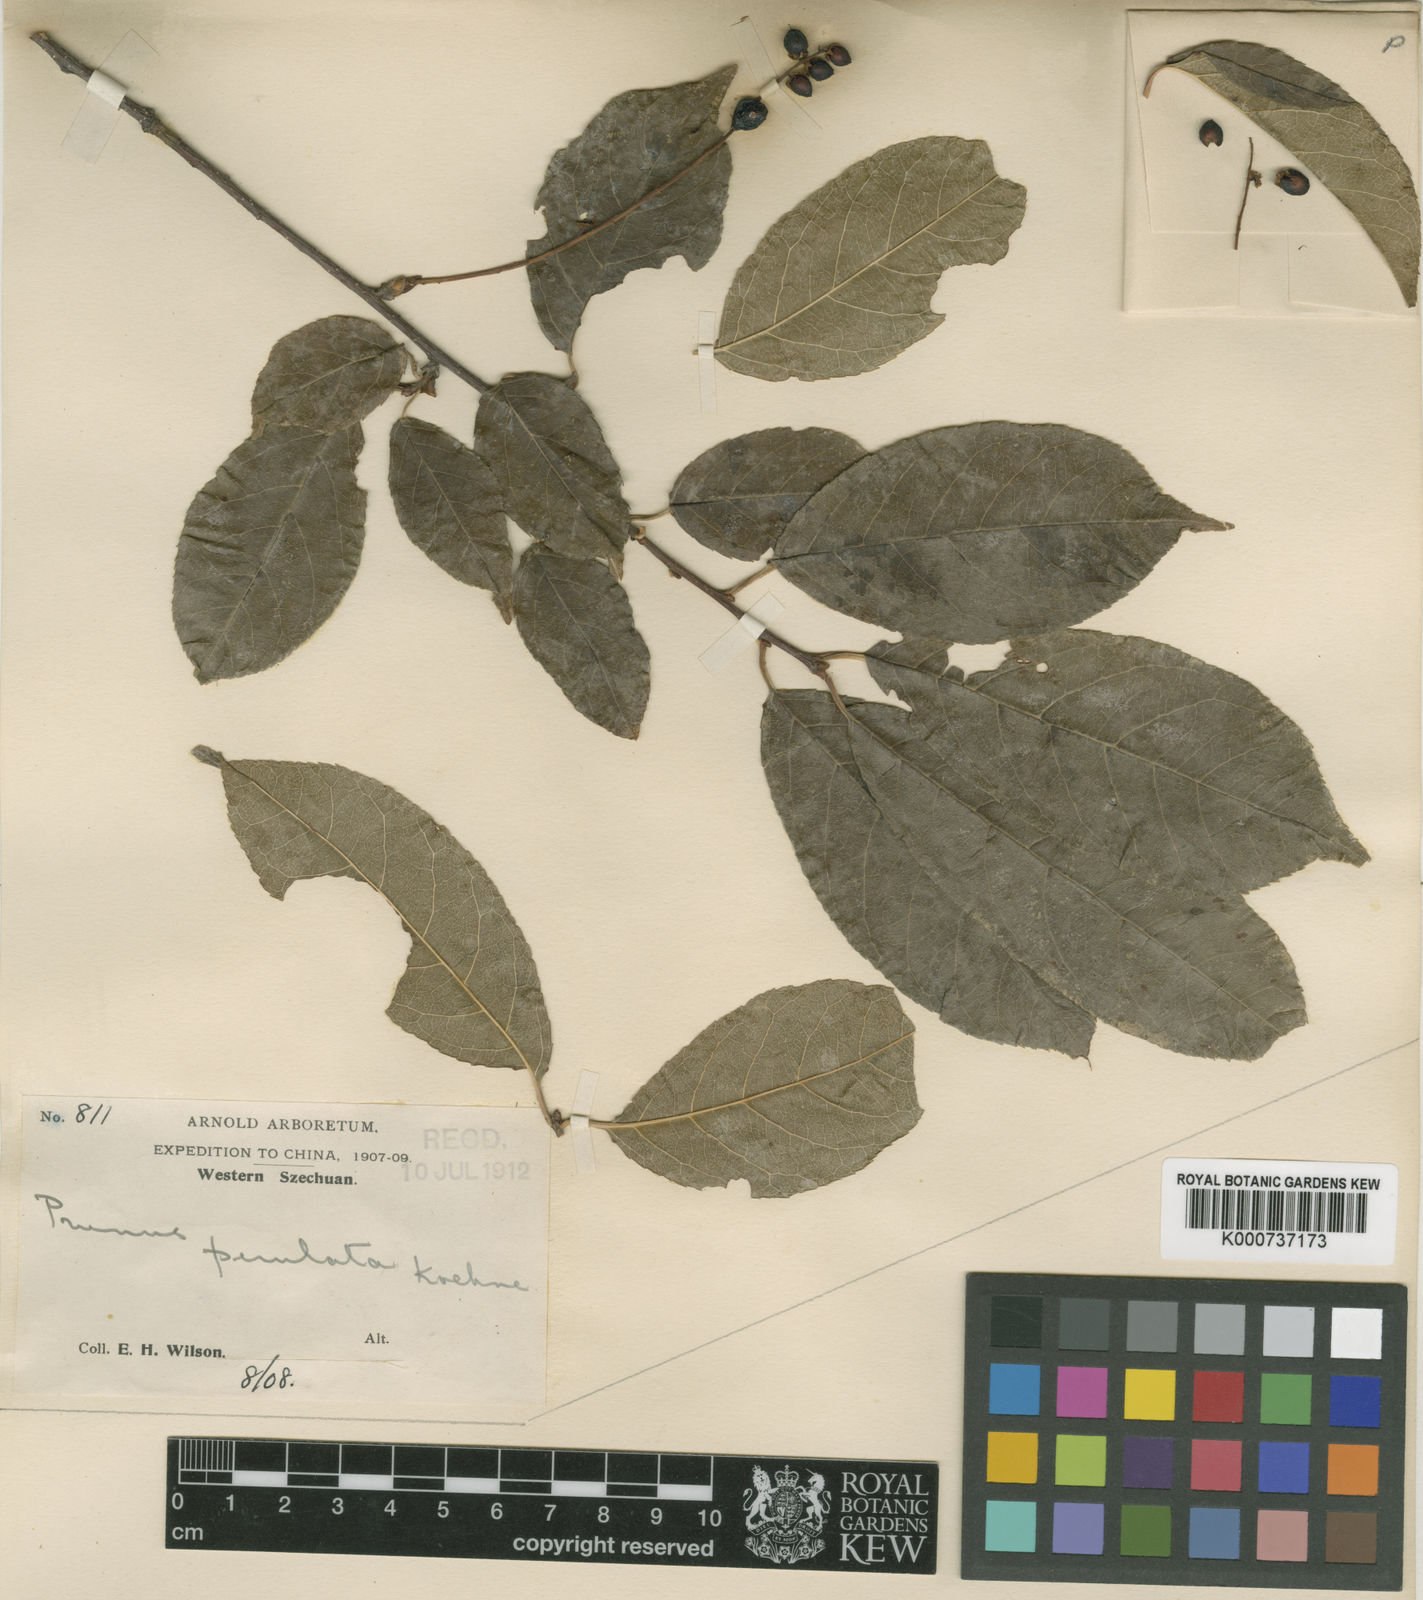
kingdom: Plantae
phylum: Tracheophyta
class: Magnoliopsida
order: Rosales
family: Rosaceae
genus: Prunus
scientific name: Prunus perulata
